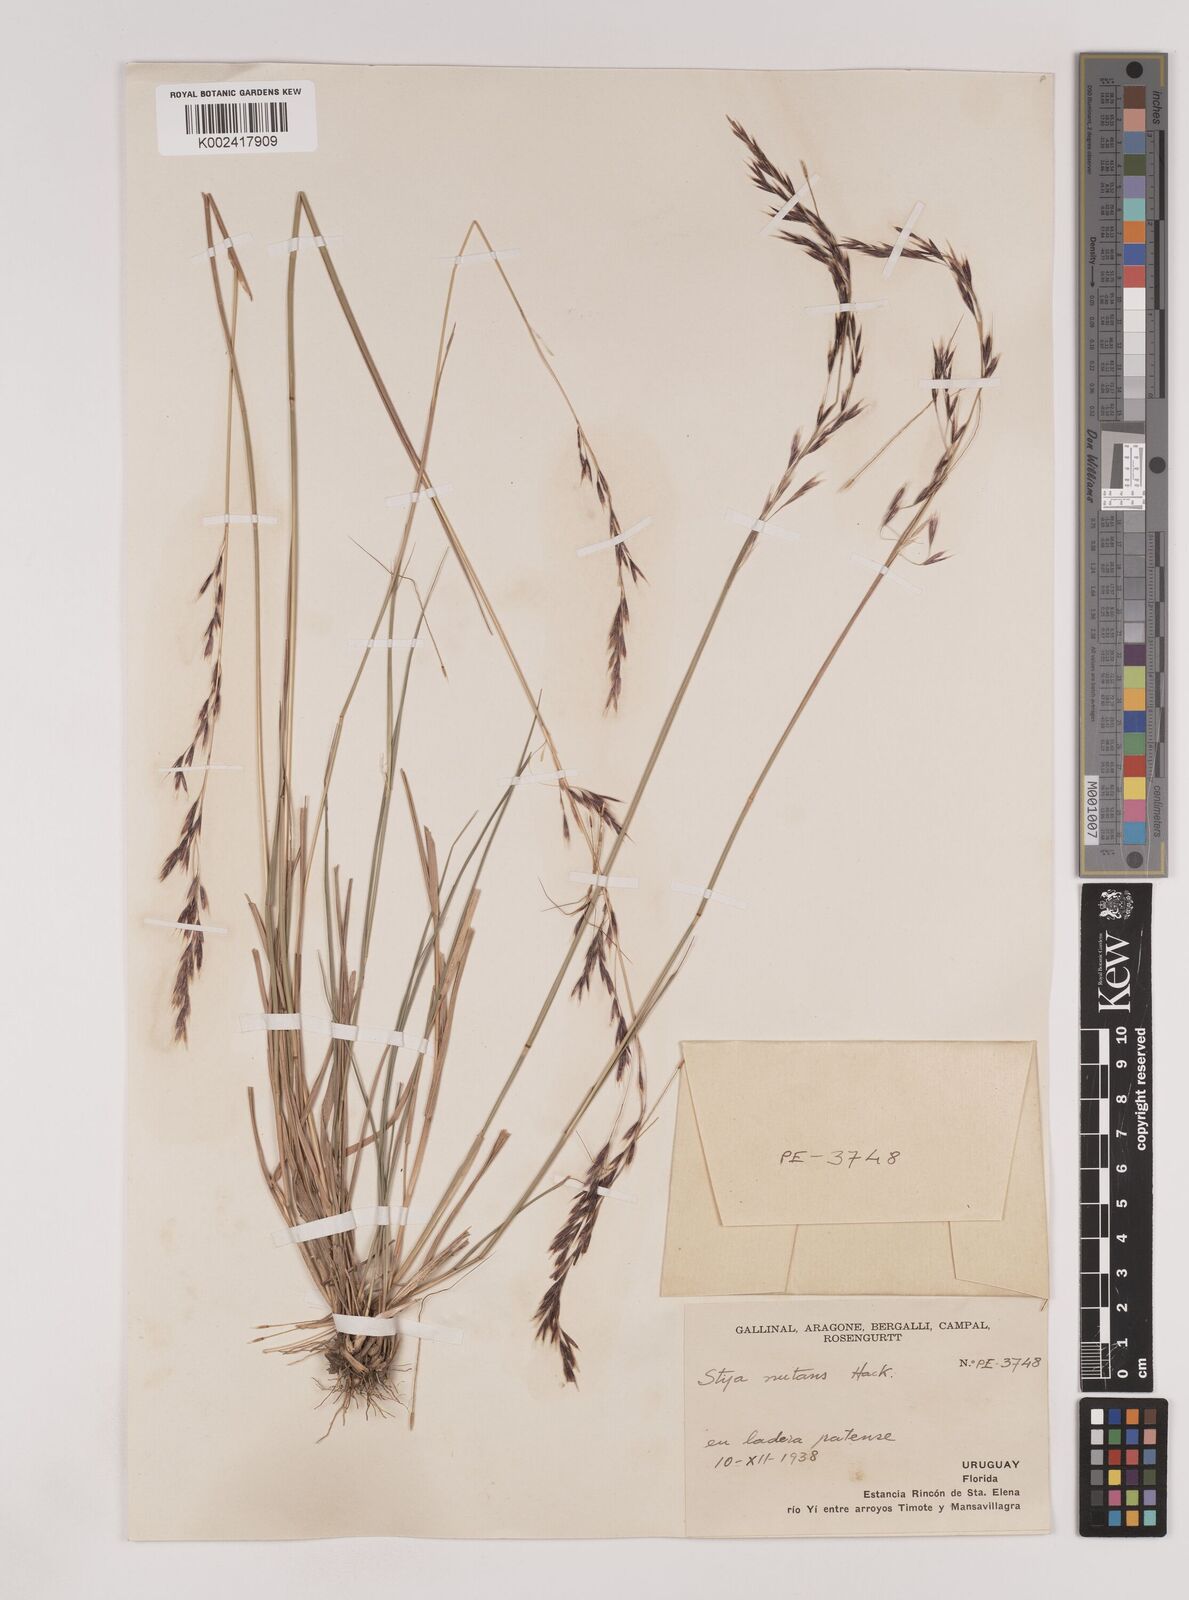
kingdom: Plantae
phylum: Tracheophyta
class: Liliopsida
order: Poales
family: Poaceae
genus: Nassella
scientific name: Nassella nutans
